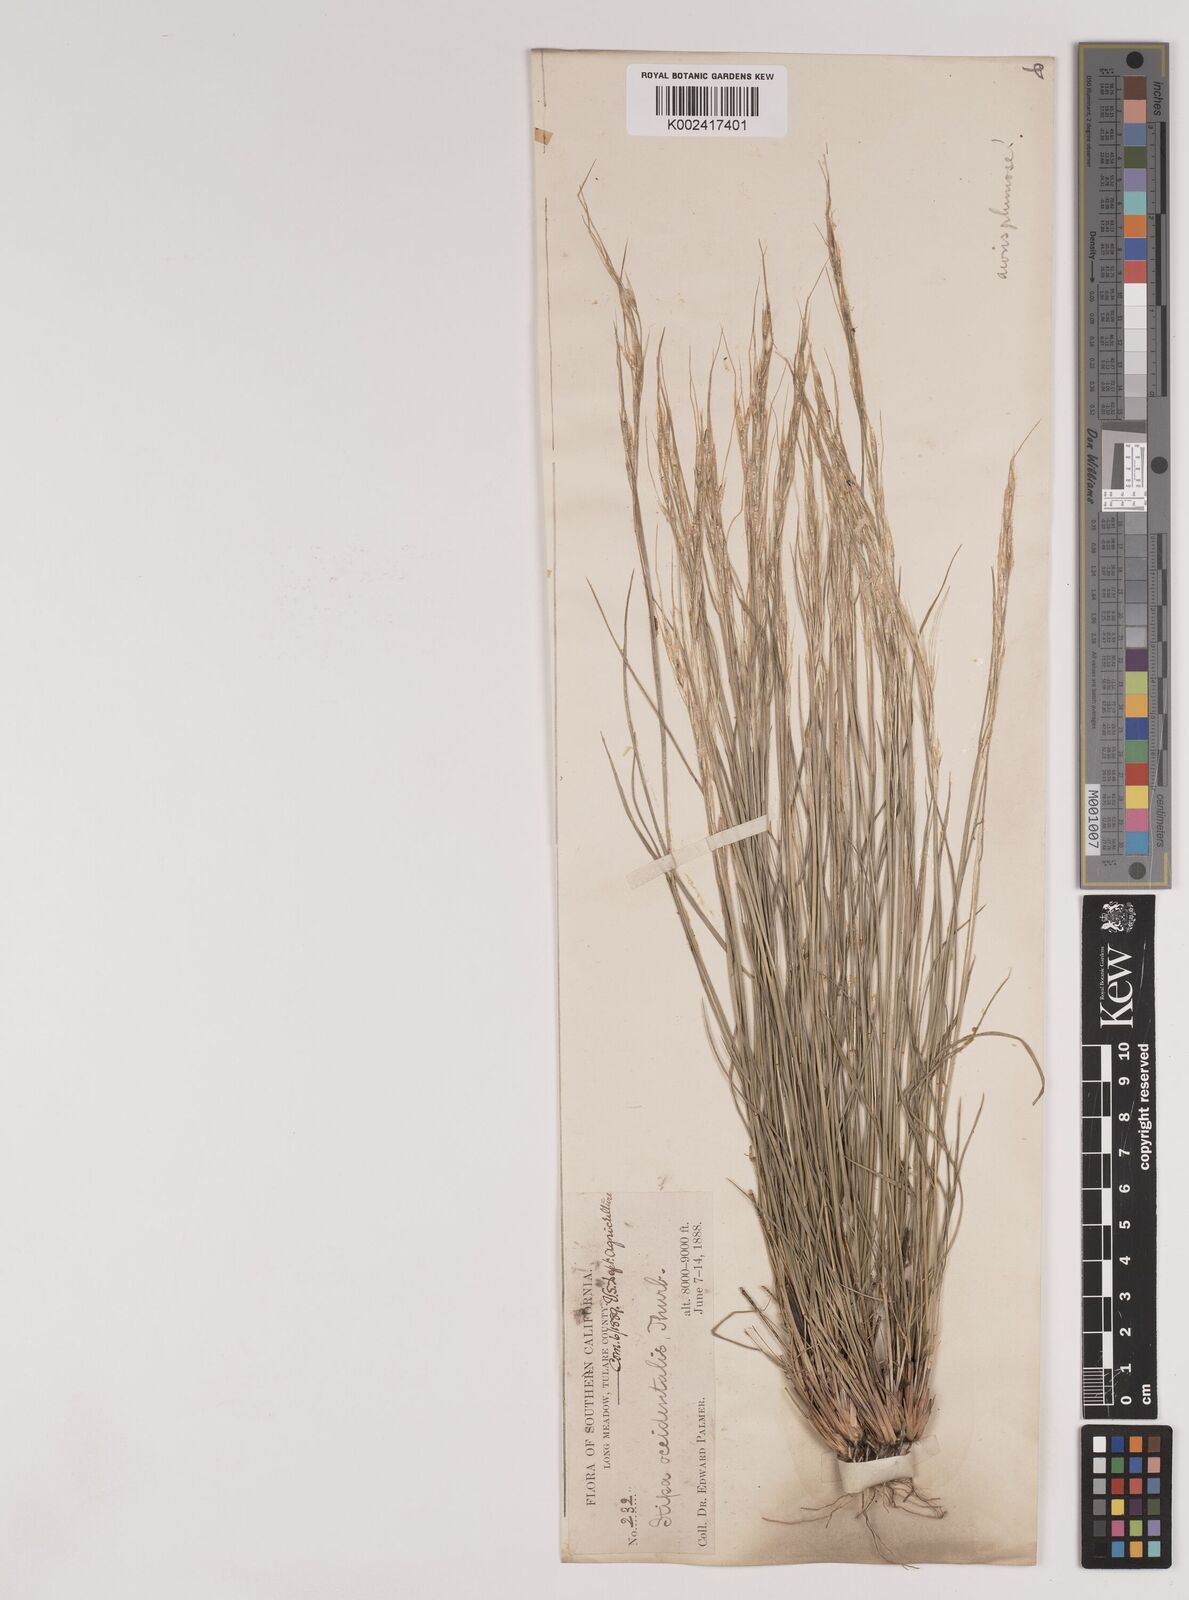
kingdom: Plantae
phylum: Tracheophyta
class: Liliopsida
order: Poales
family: Poaceae
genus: Nassella
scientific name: Nassella viridula
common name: Green needlegrass
